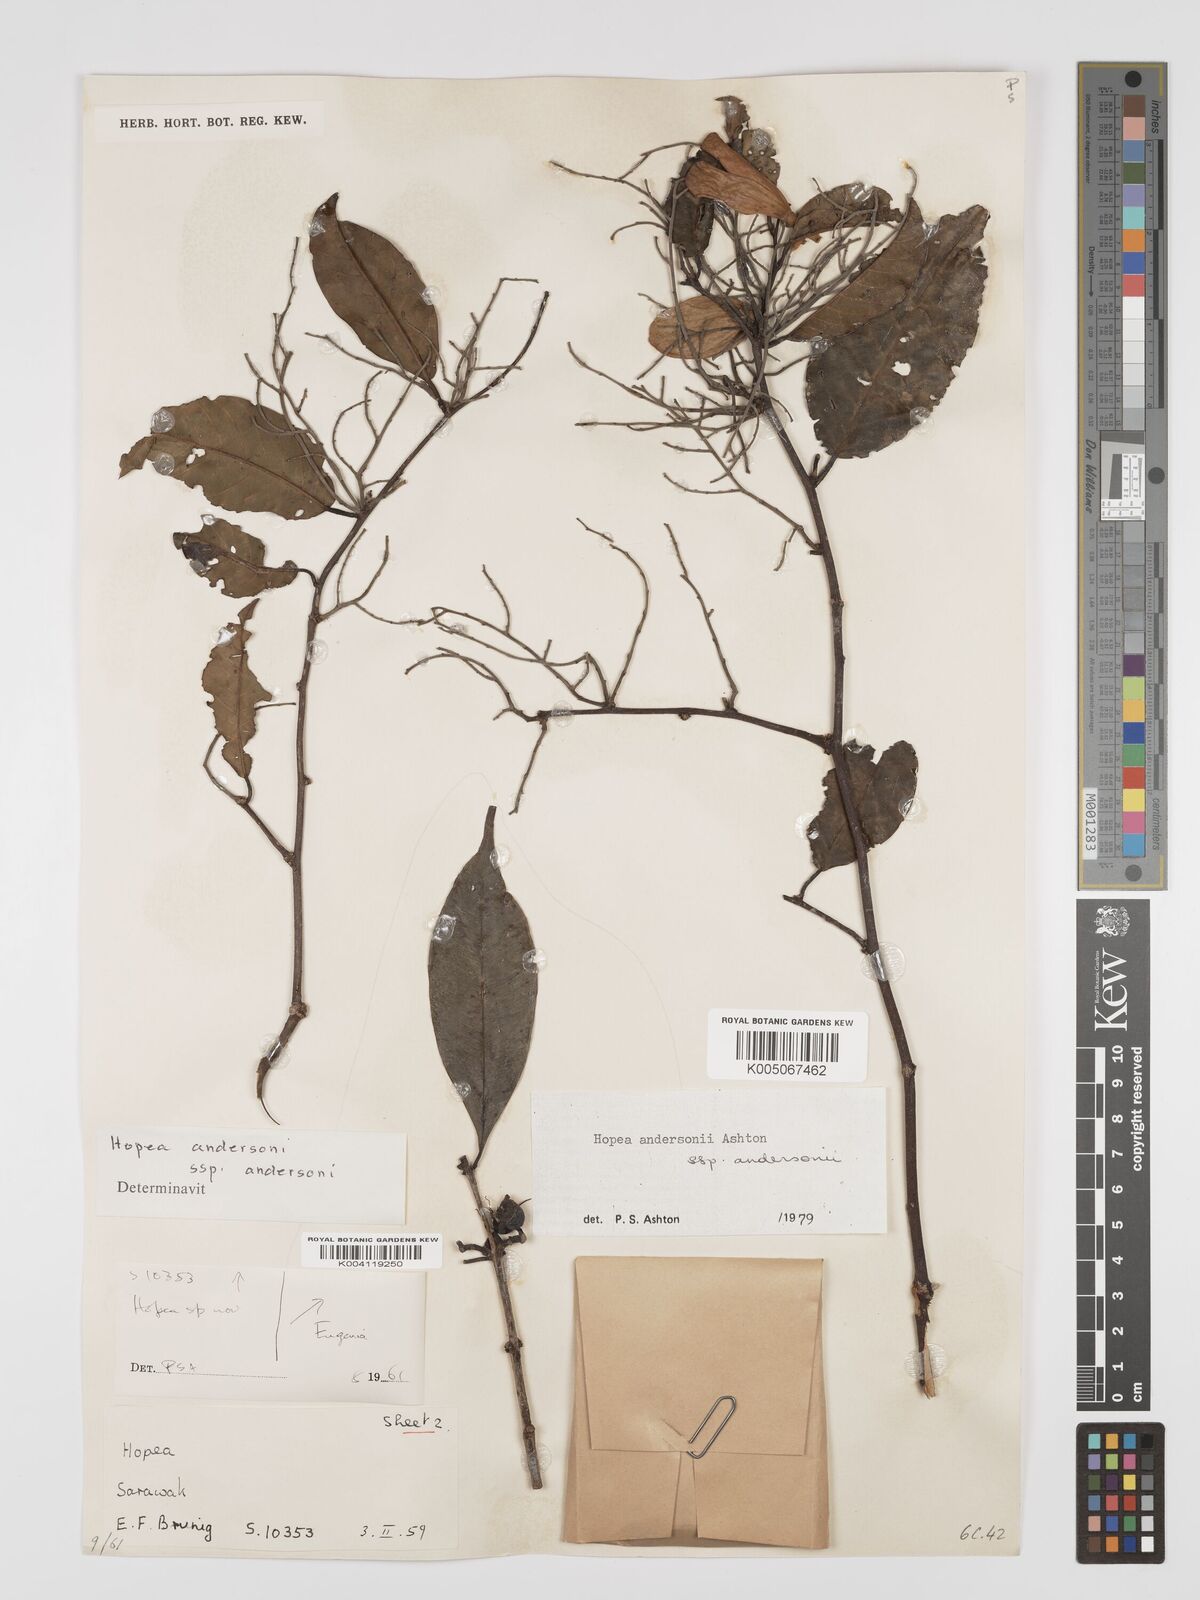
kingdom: Plantae
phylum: Tracheophyta
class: Magnoliopsida
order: Malvales
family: Dipterocarpaceae
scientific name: Dipterocarpaceae
